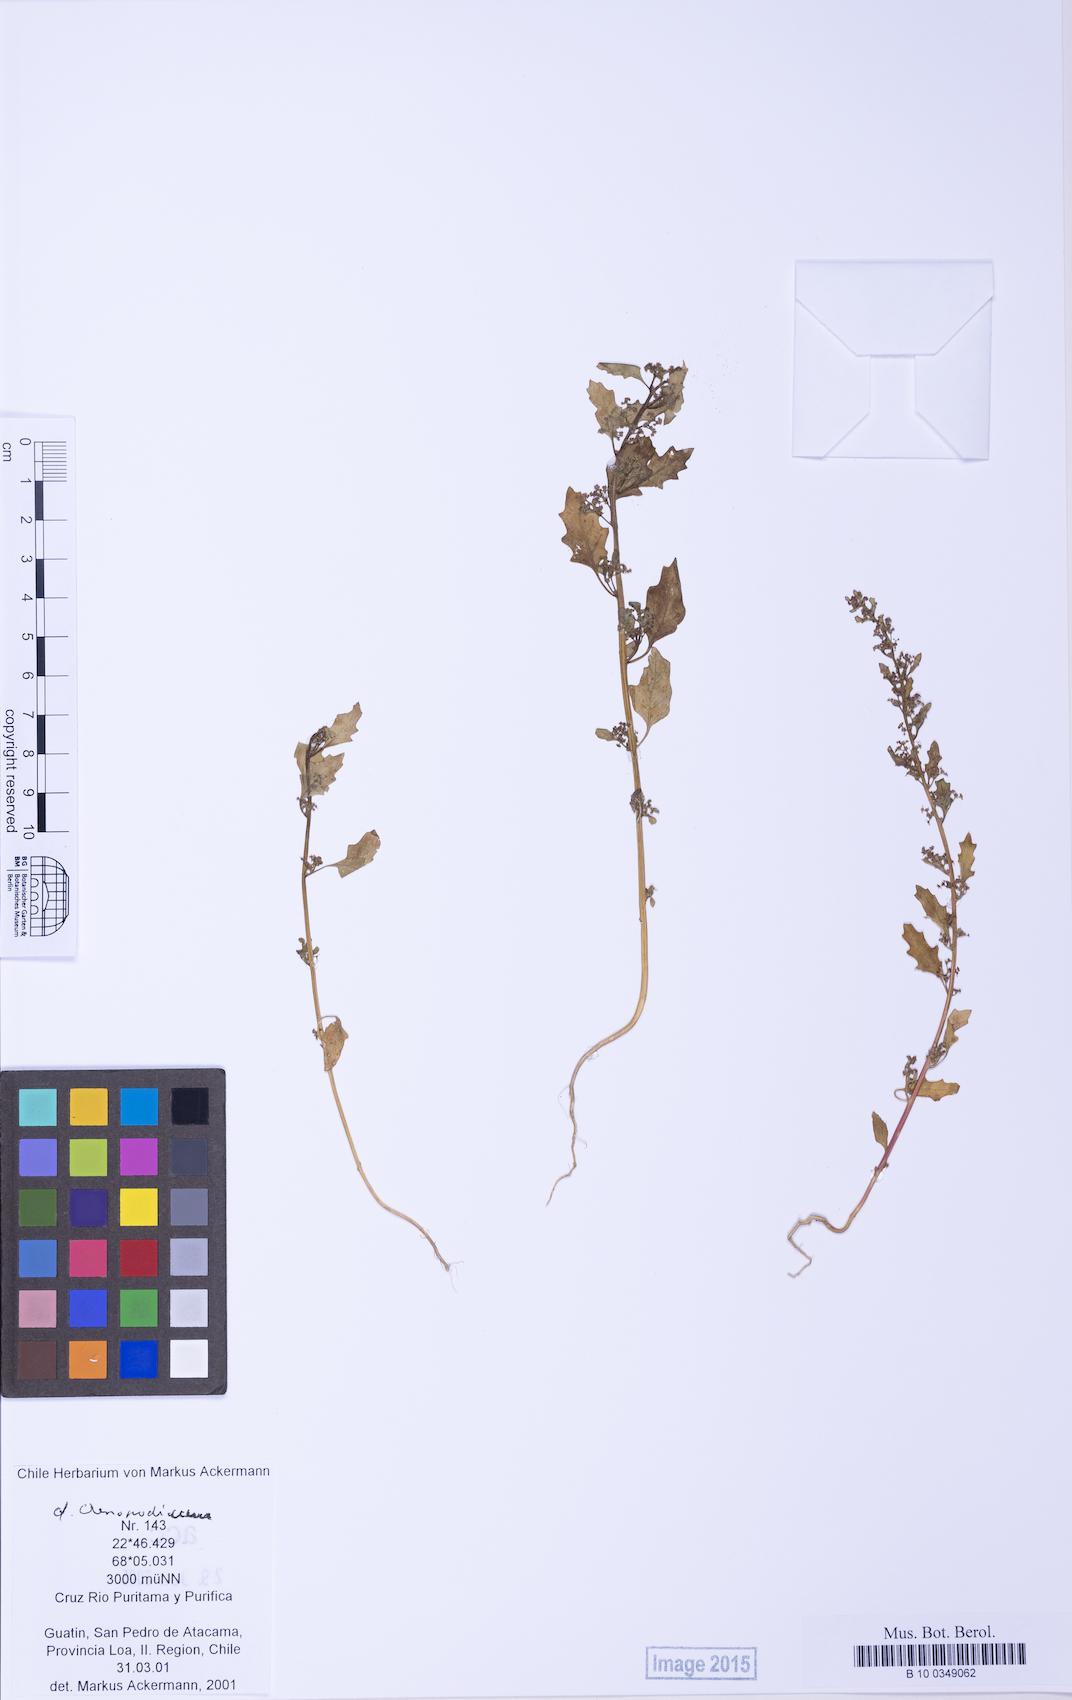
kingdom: Plantae
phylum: Tracheophyta
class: Magnoliopsida
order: Caryophyllales
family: Amaranthaceae
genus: Chenopodium
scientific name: Chenopodium
